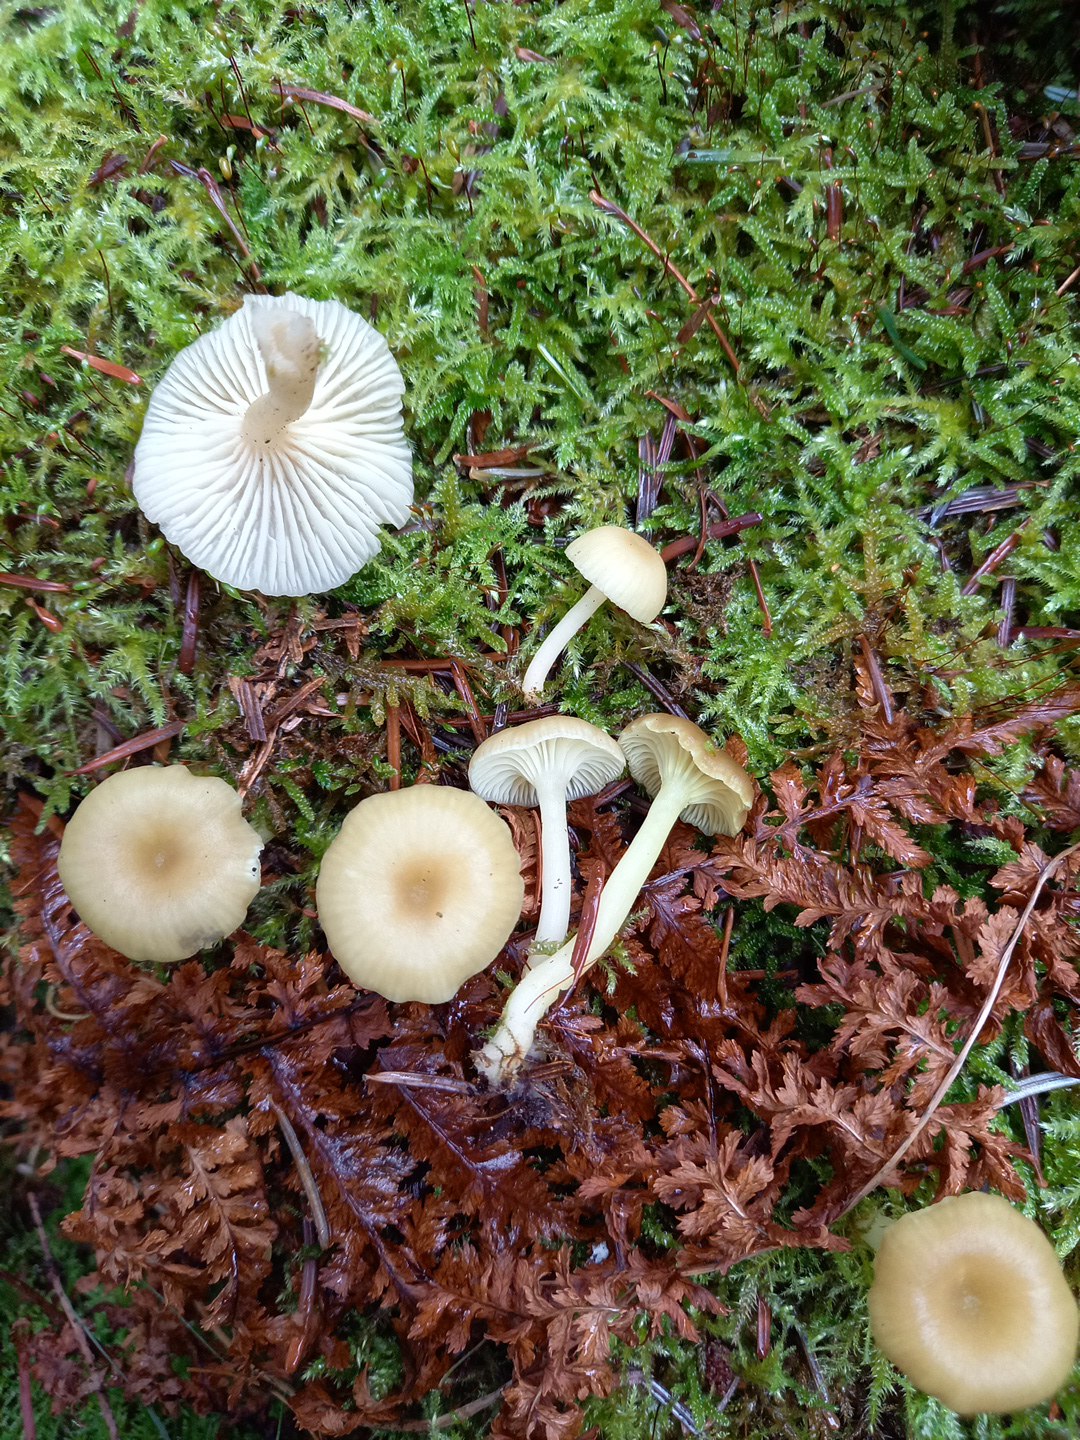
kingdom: Fungi
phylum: Basidiomycota
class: Agaricomycetes
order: Agaricales
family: Hygrophoraceae
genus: Chrysomphalina
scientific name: Chrysomphalina grossula
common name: stød-gyldenblad
